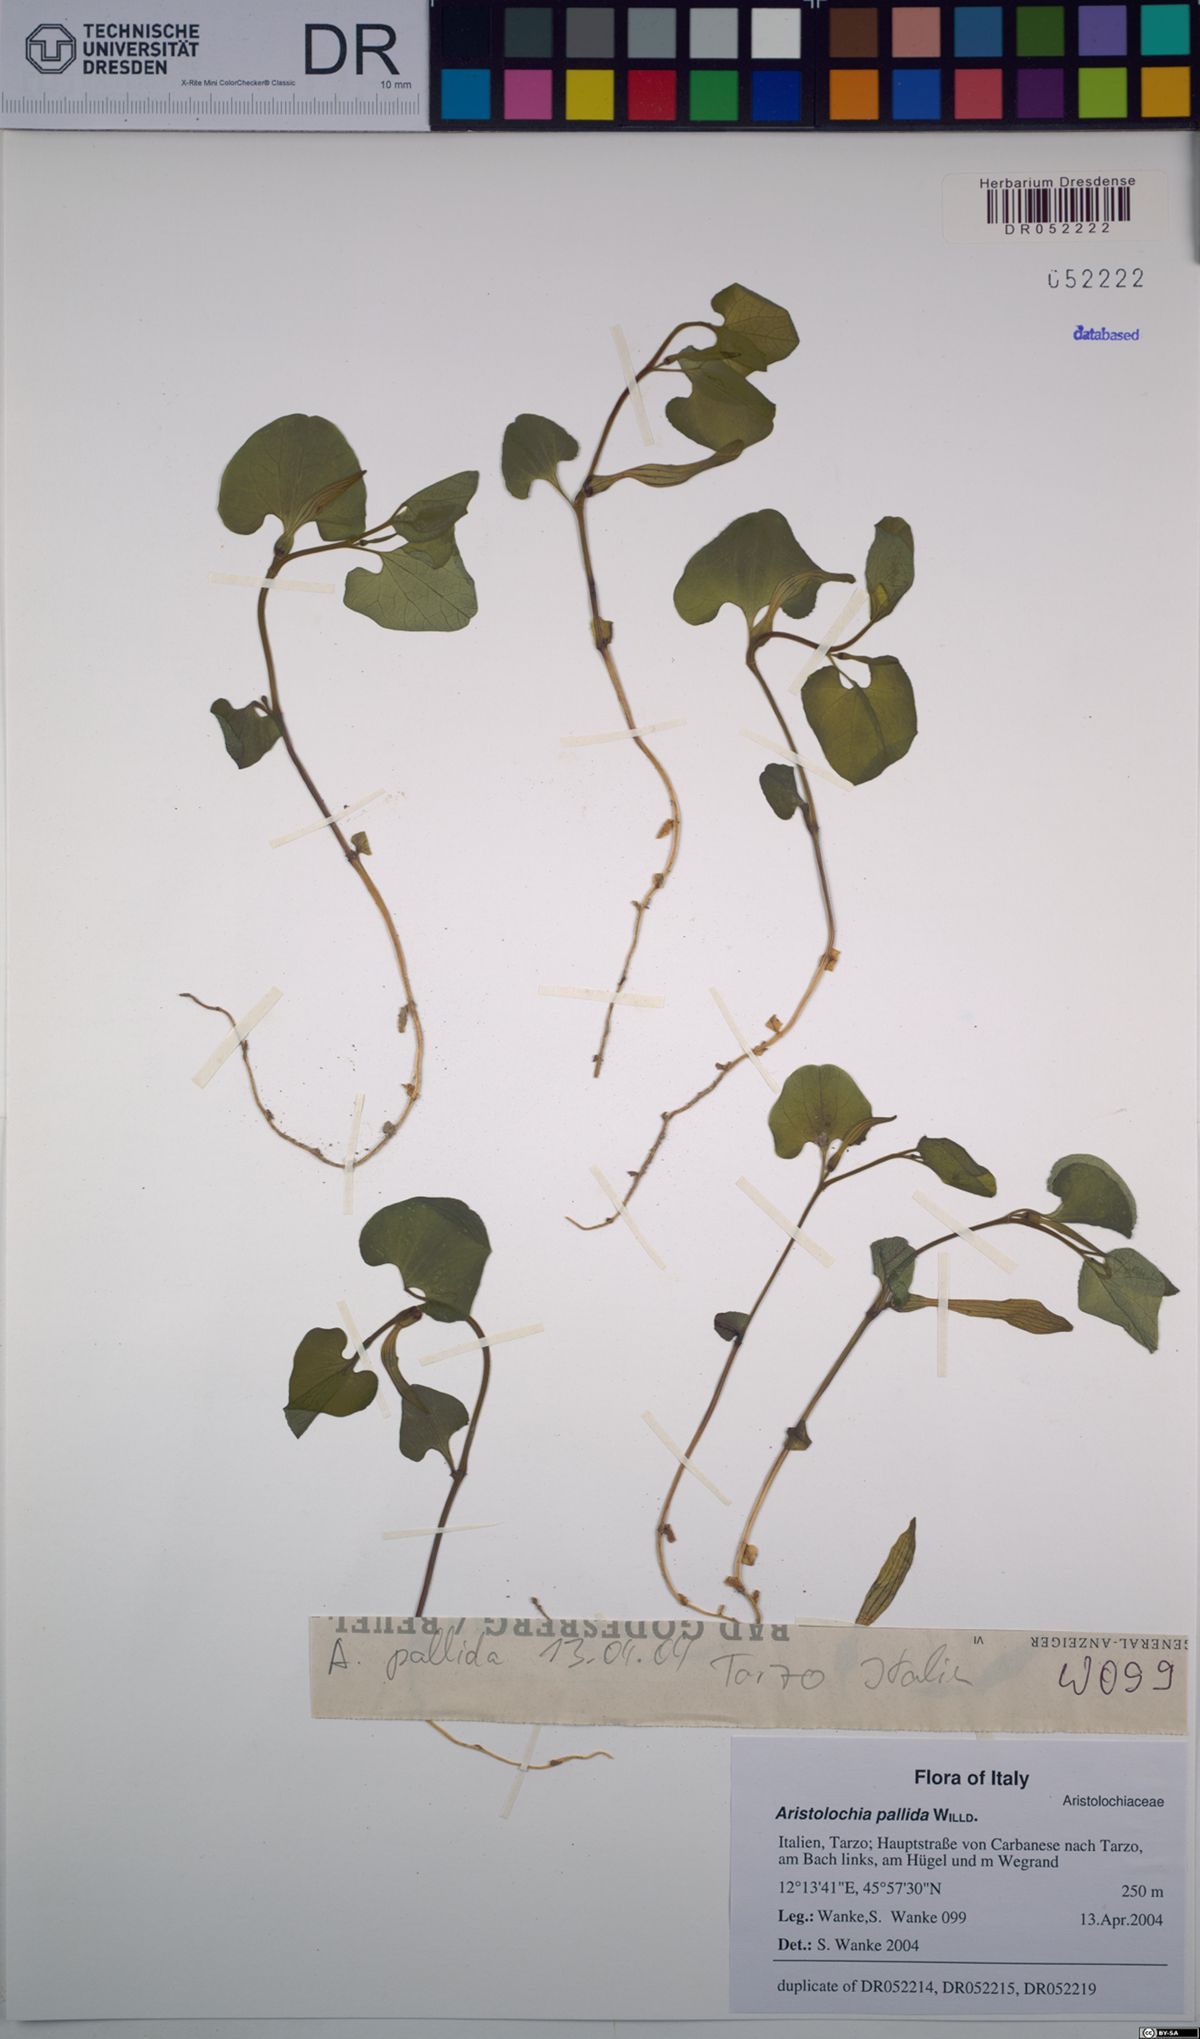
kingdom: Plantae
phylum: Tracheophyta
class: Magnoliopsida
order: Piperales
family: Aristolochiaceae
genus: Aristolochia
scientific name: Aristolochia pallida
